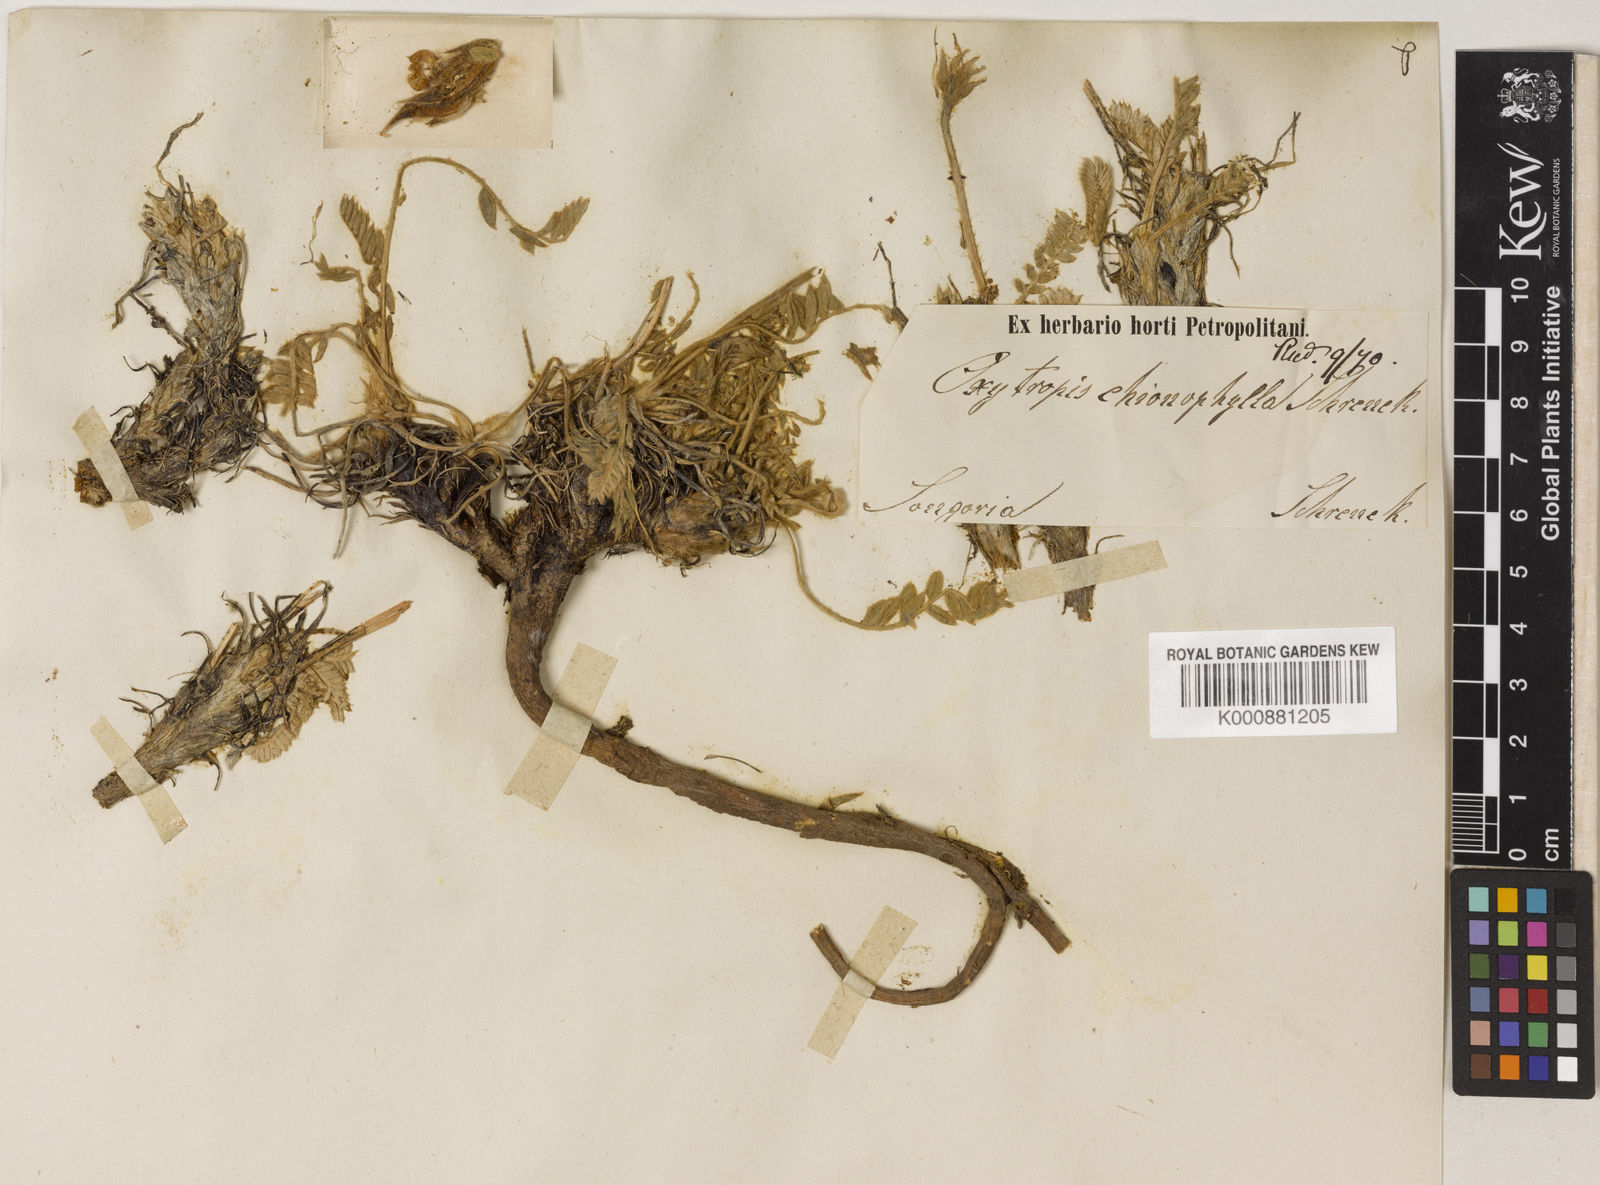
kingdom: Plantae
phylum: Tracheophyta
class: Magnoliopsida
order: Fabales
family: Fabaceae
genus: Oxytropis
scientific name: Oxytropis
